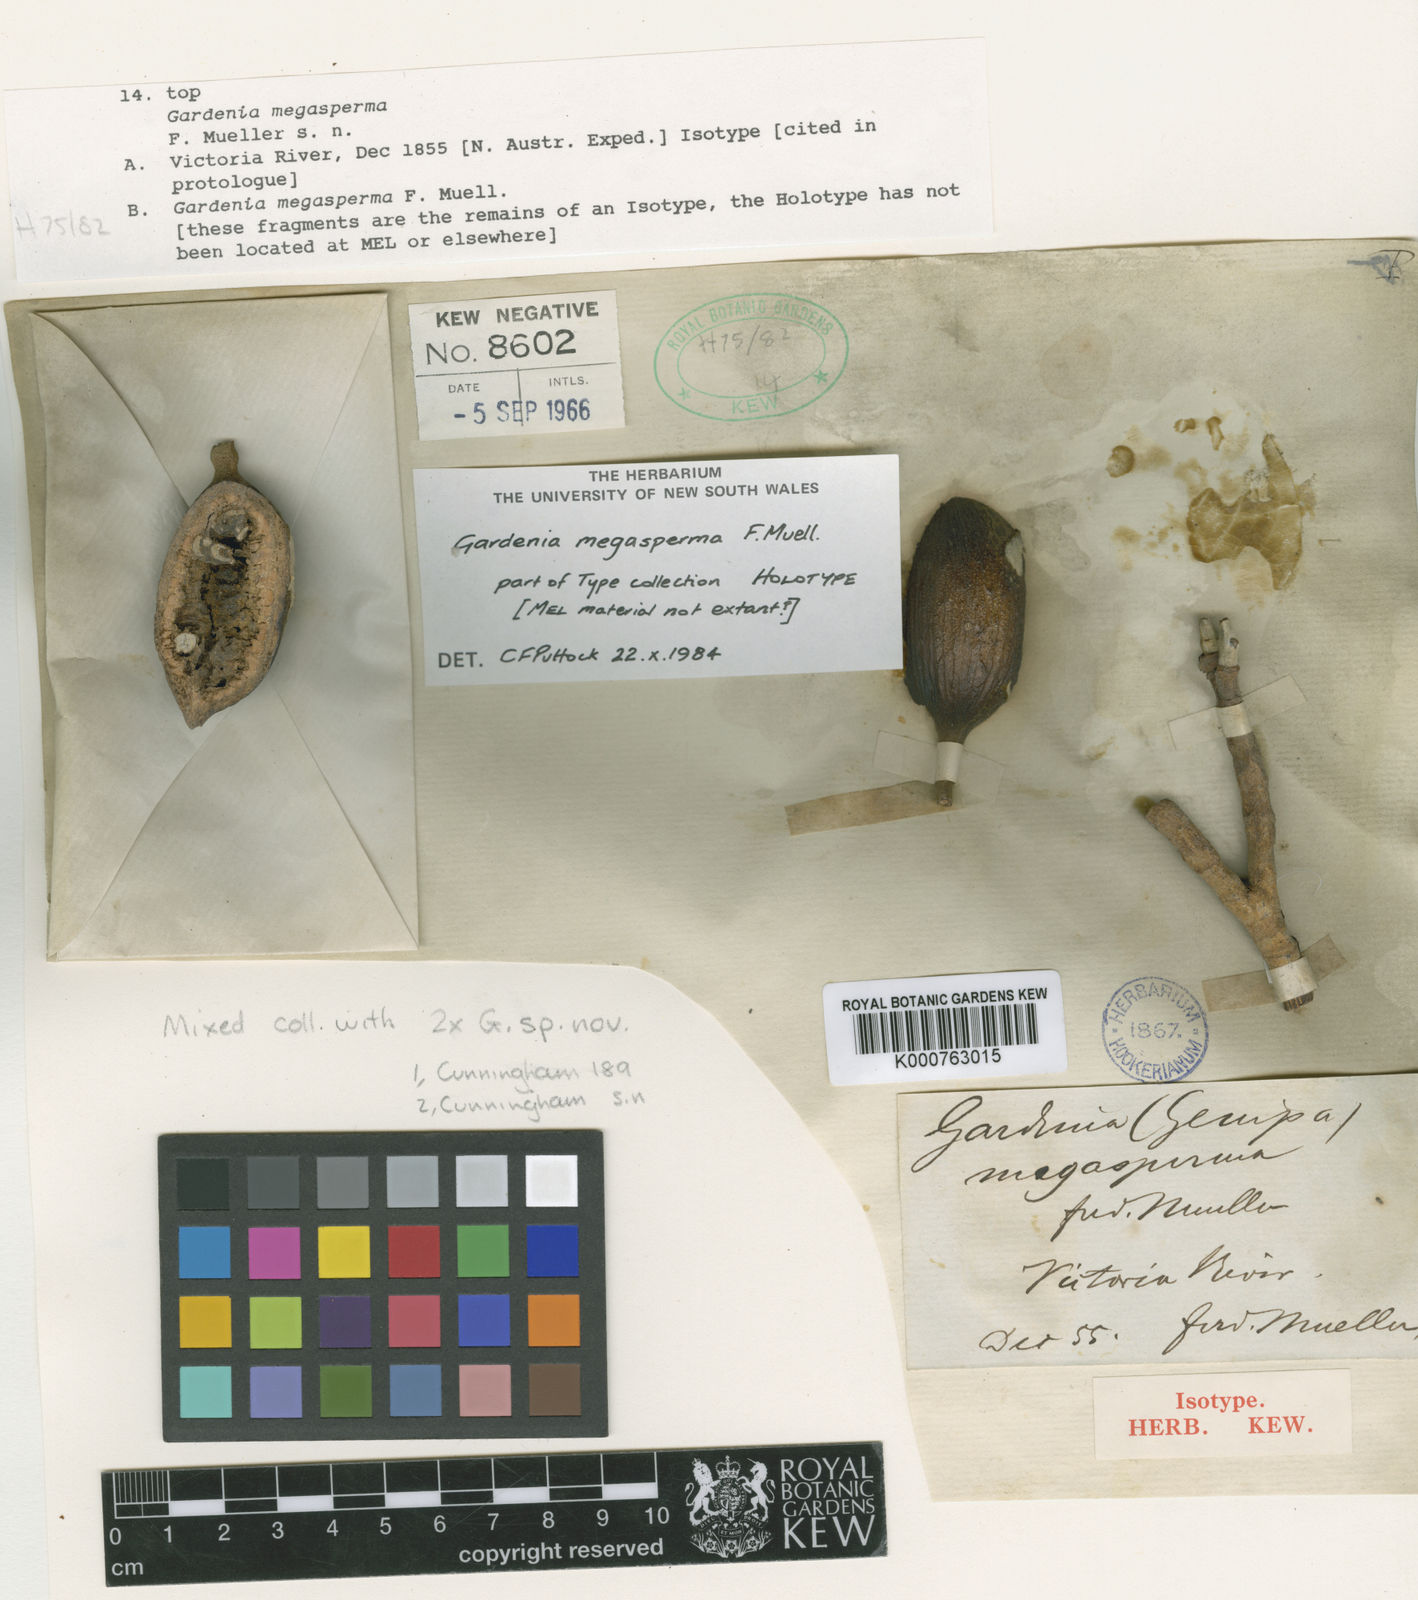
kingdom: Plantae
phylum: Tracheophyta
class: Magnoliopsida
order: Gentianales
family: Rubiaceae
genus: Gardenia
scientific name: Gardenia megasperma
